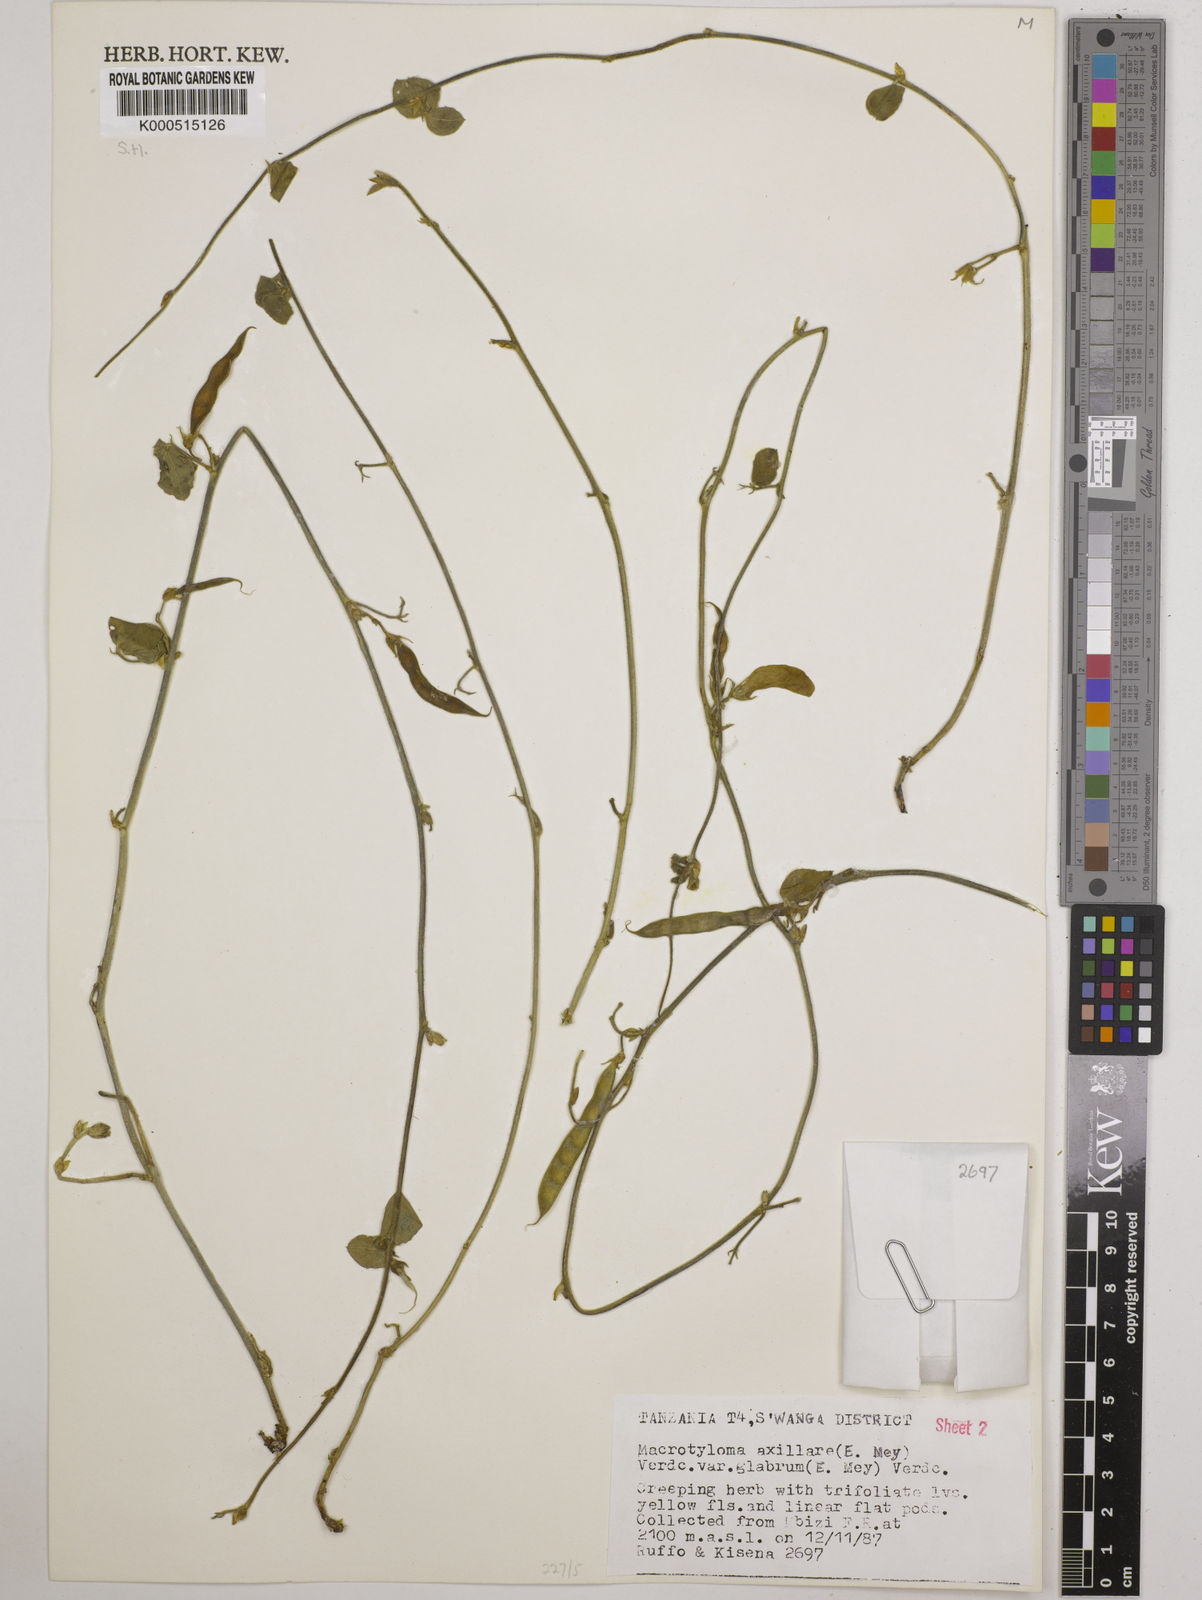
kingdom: Plantae
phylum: Tracheophyta
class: Magnoliopsida
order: Fabales
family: Fabaceae
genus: Macrotyloma
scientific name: Macrotyloma
